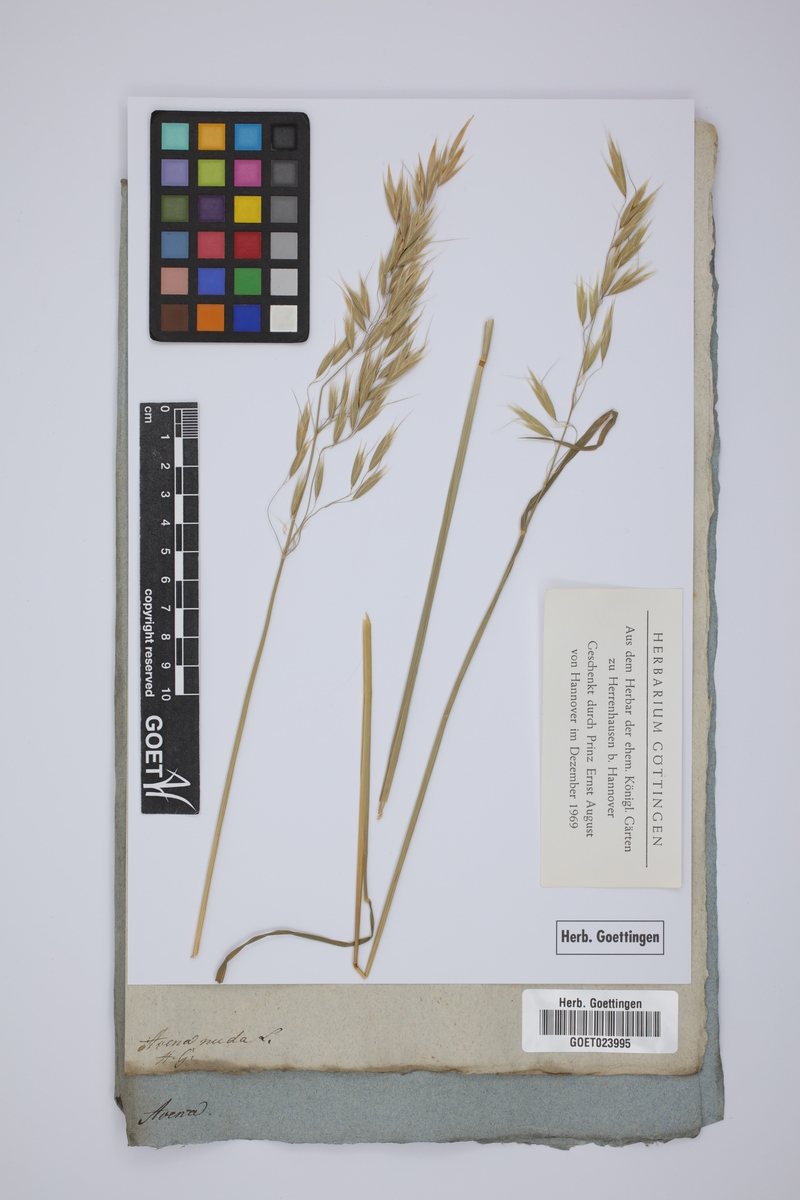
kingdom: Plantae
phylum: Tracheophyta
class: Liliopsida
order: Poales
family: Poaceae
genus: Avena
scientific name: Avena nuda
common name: Naked oat
